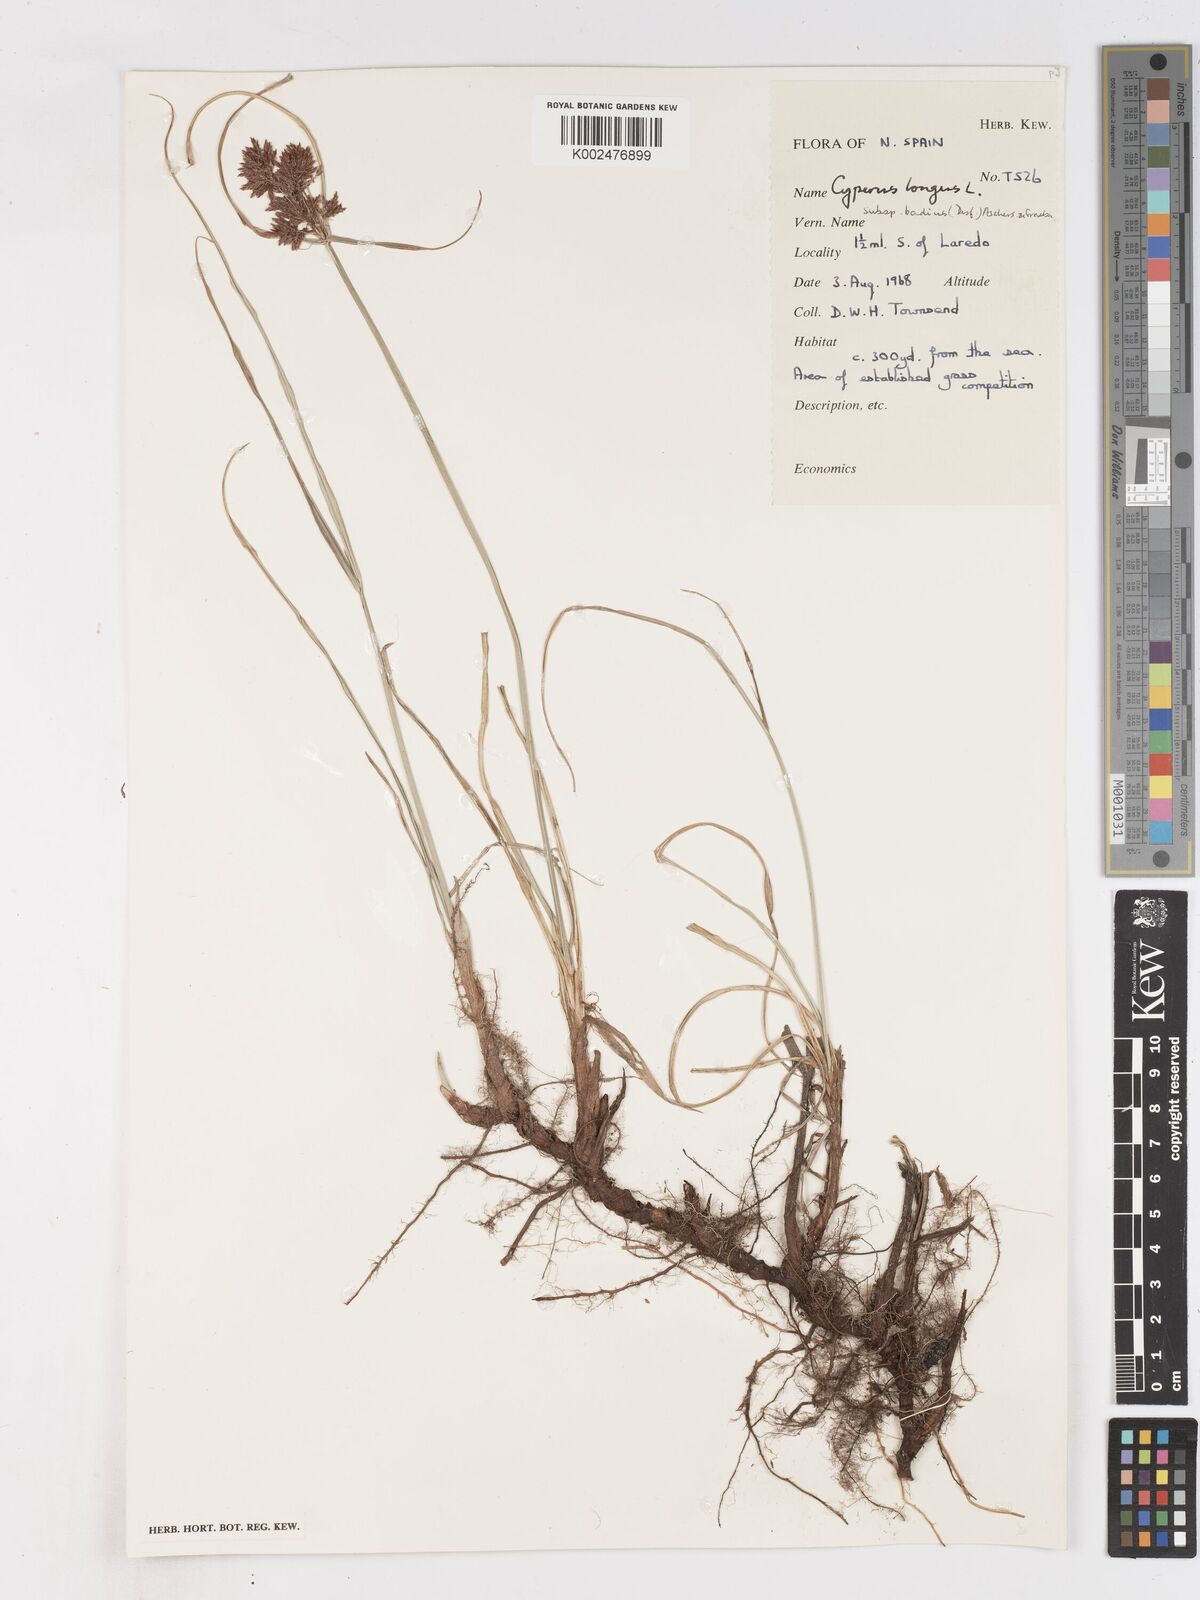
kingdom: Plantae
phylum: Tracheophyta
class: Liliopsida
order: Poales
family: Cyperaceae
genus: Cyperus
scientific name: Cyperus longus
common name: Galingale
